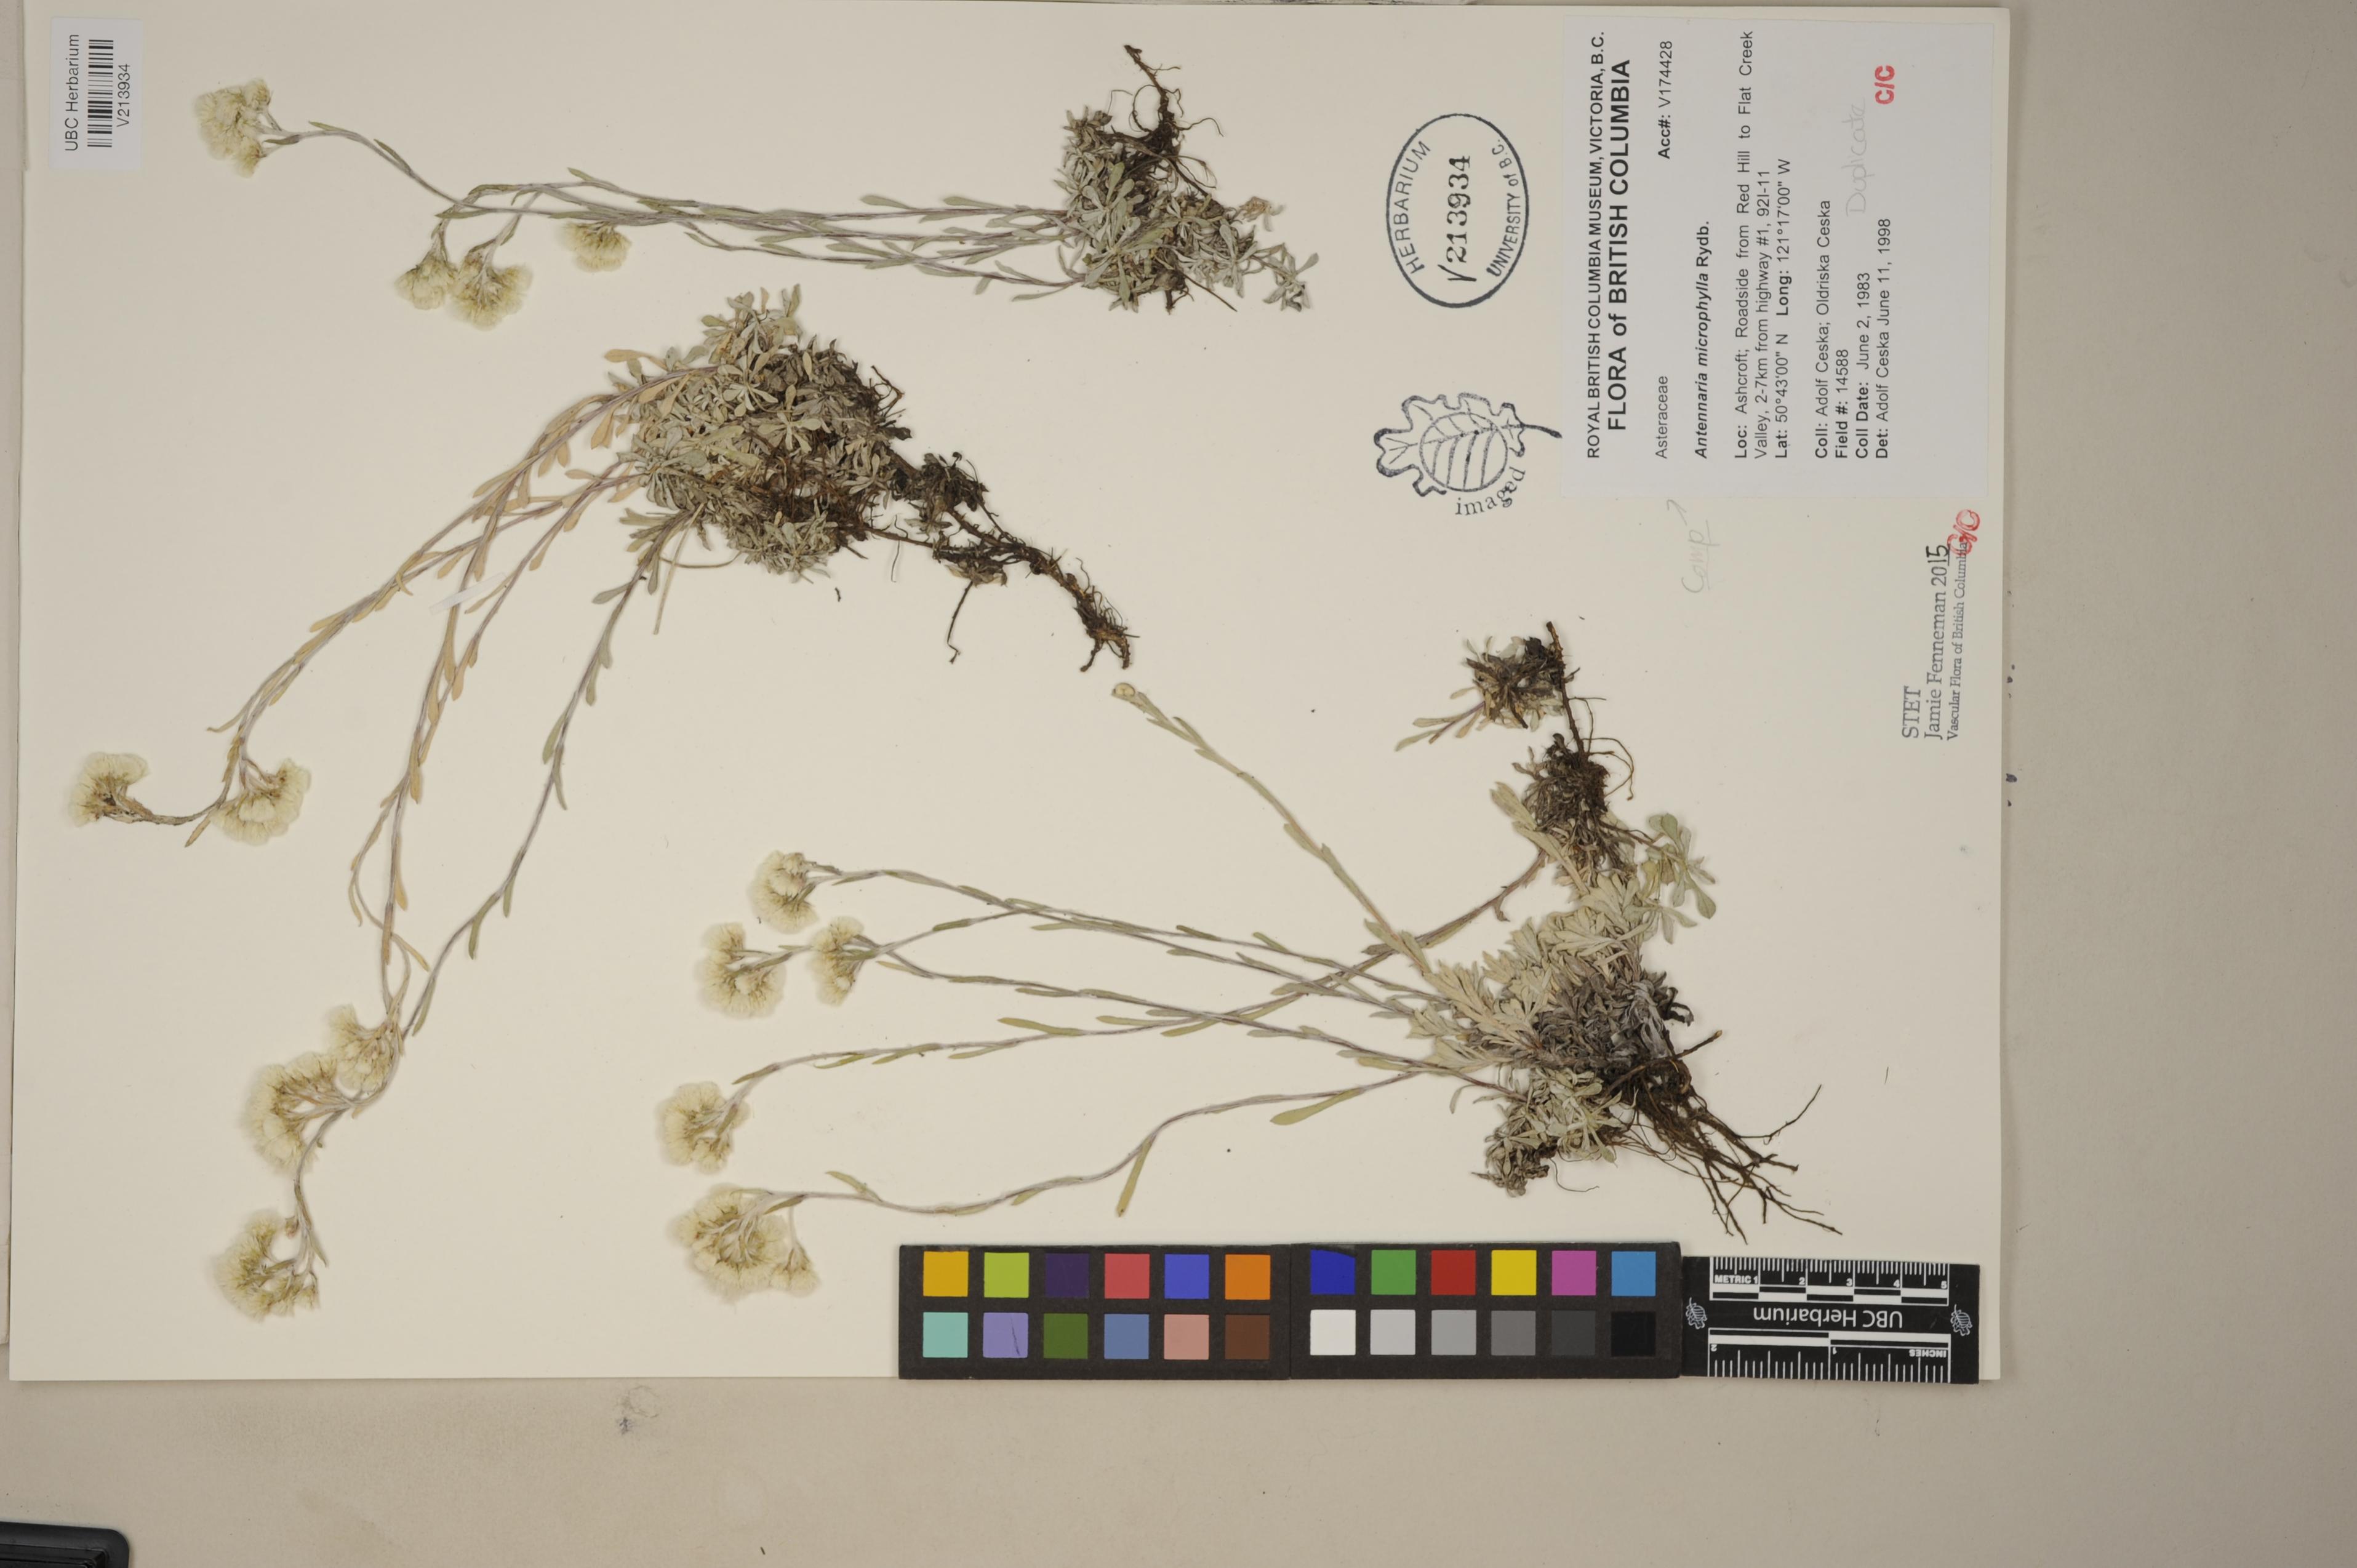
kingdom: Plantae
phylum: Tracheophyta
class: Magnoliopsida
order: Asterales
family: Asteraceae
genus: Antennaria
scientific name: Antennaria microphylla
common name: Littleleaf pussytoes
